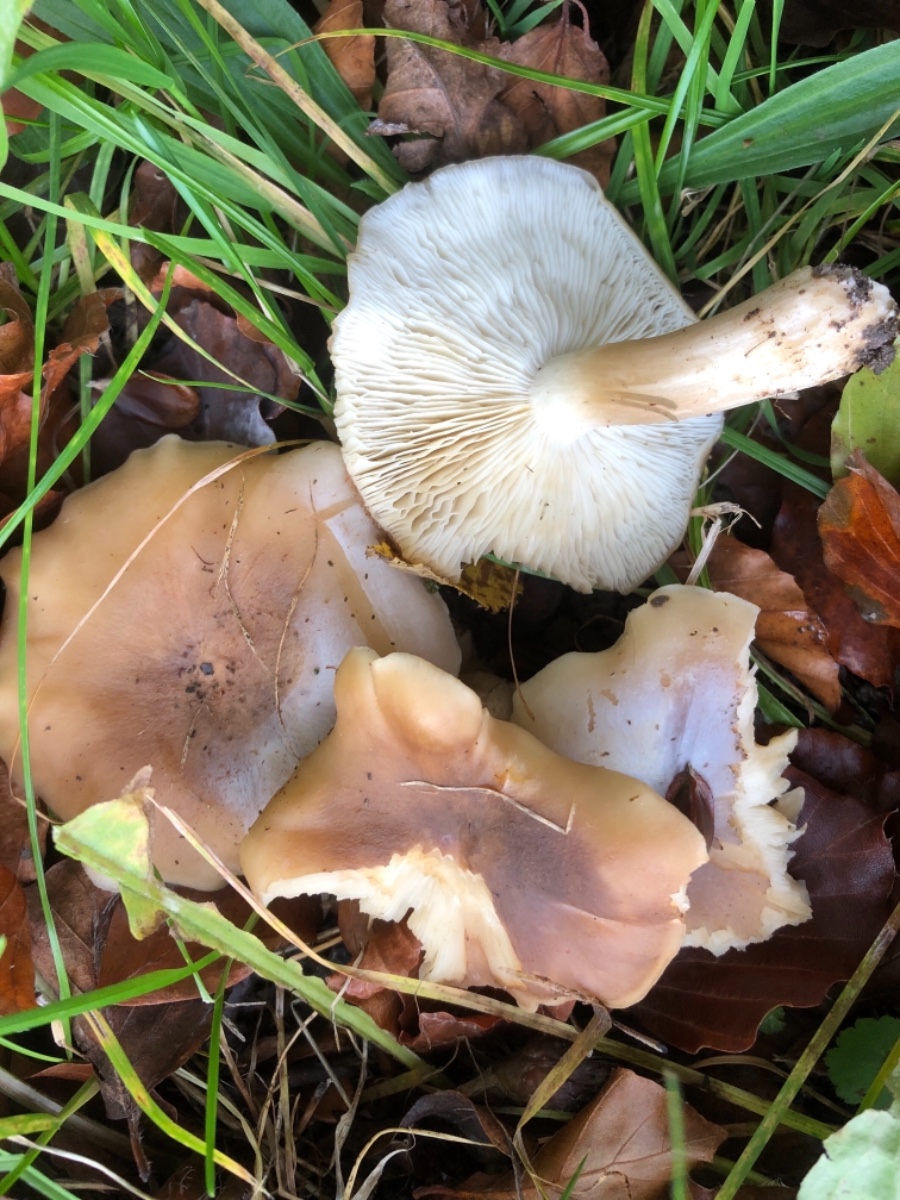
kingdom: Fungi
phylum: Basidiomycota
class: Agaricomycetes
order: Agaricales
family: Lyophyllaceae
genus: Lyophyllum
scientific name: Lyophyllum decastes
